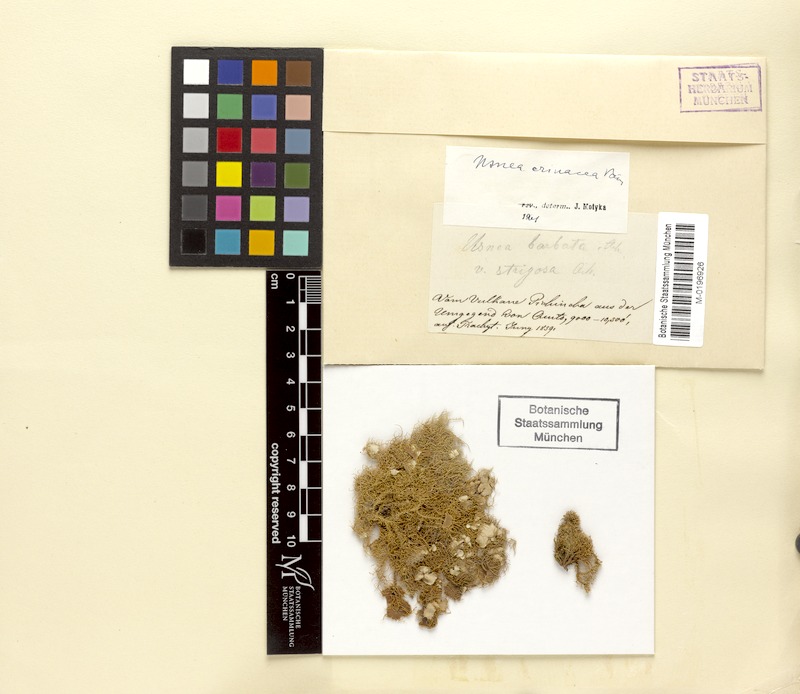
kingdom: Fungi
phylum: Ascomycota
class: Lecanoromycetes
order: Lecanorales
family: Parmeliaceae
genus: Usnea
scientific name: Usnea erinacea
